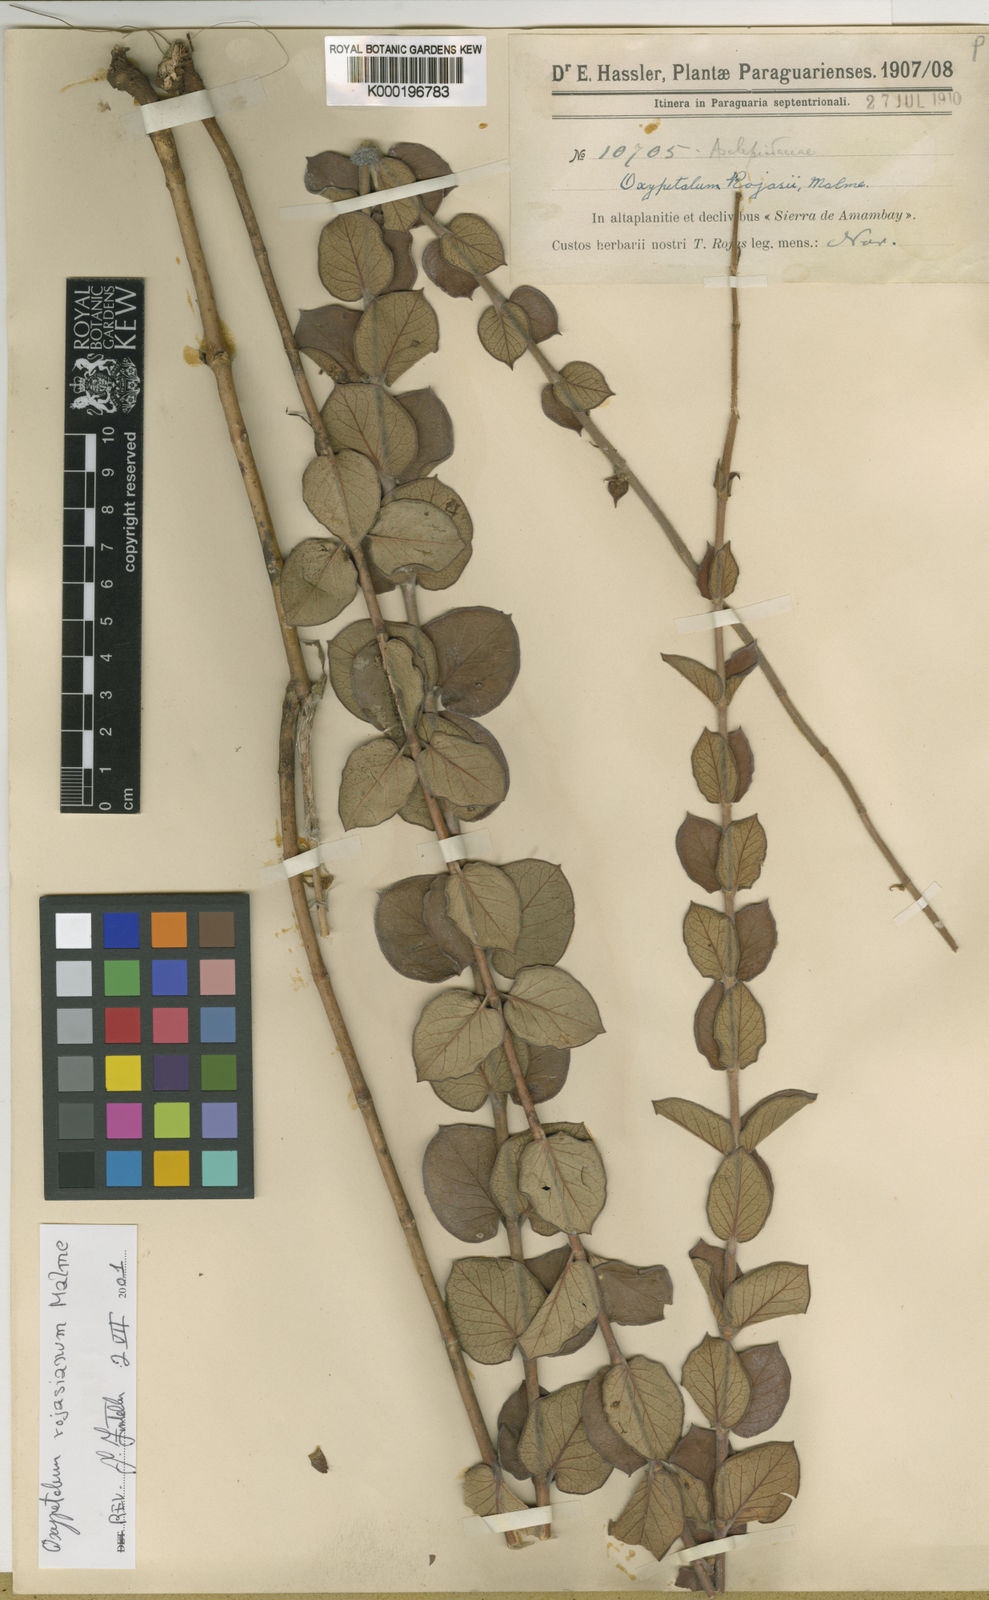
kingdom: Plantae
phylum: Tracheophyta
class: Magnoliopsida
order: Gentianales
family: Apocynaceae
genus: Oxypetalum
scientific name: Oxypetalum rojasianum
